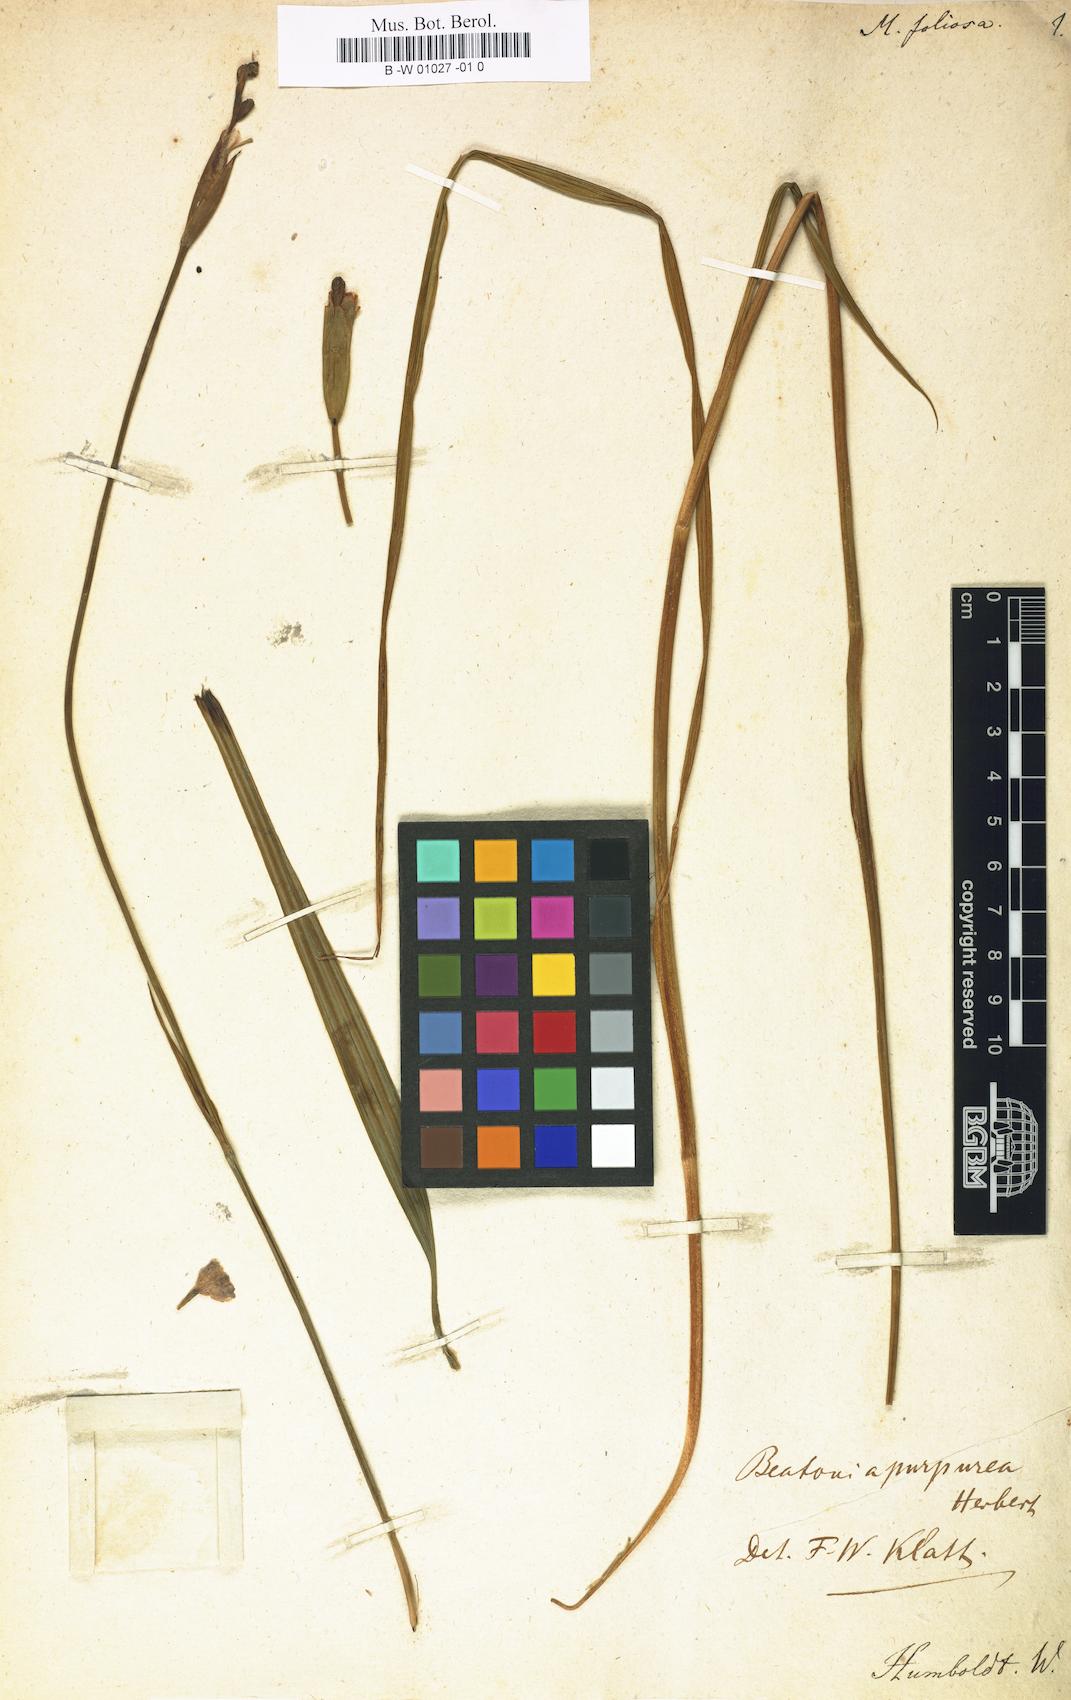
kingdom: Plantae
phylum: Tracheophyta
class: Liliopsida
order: Asparagales
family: Iridaceae
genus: Tigridia
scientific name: Tigridia augusta
